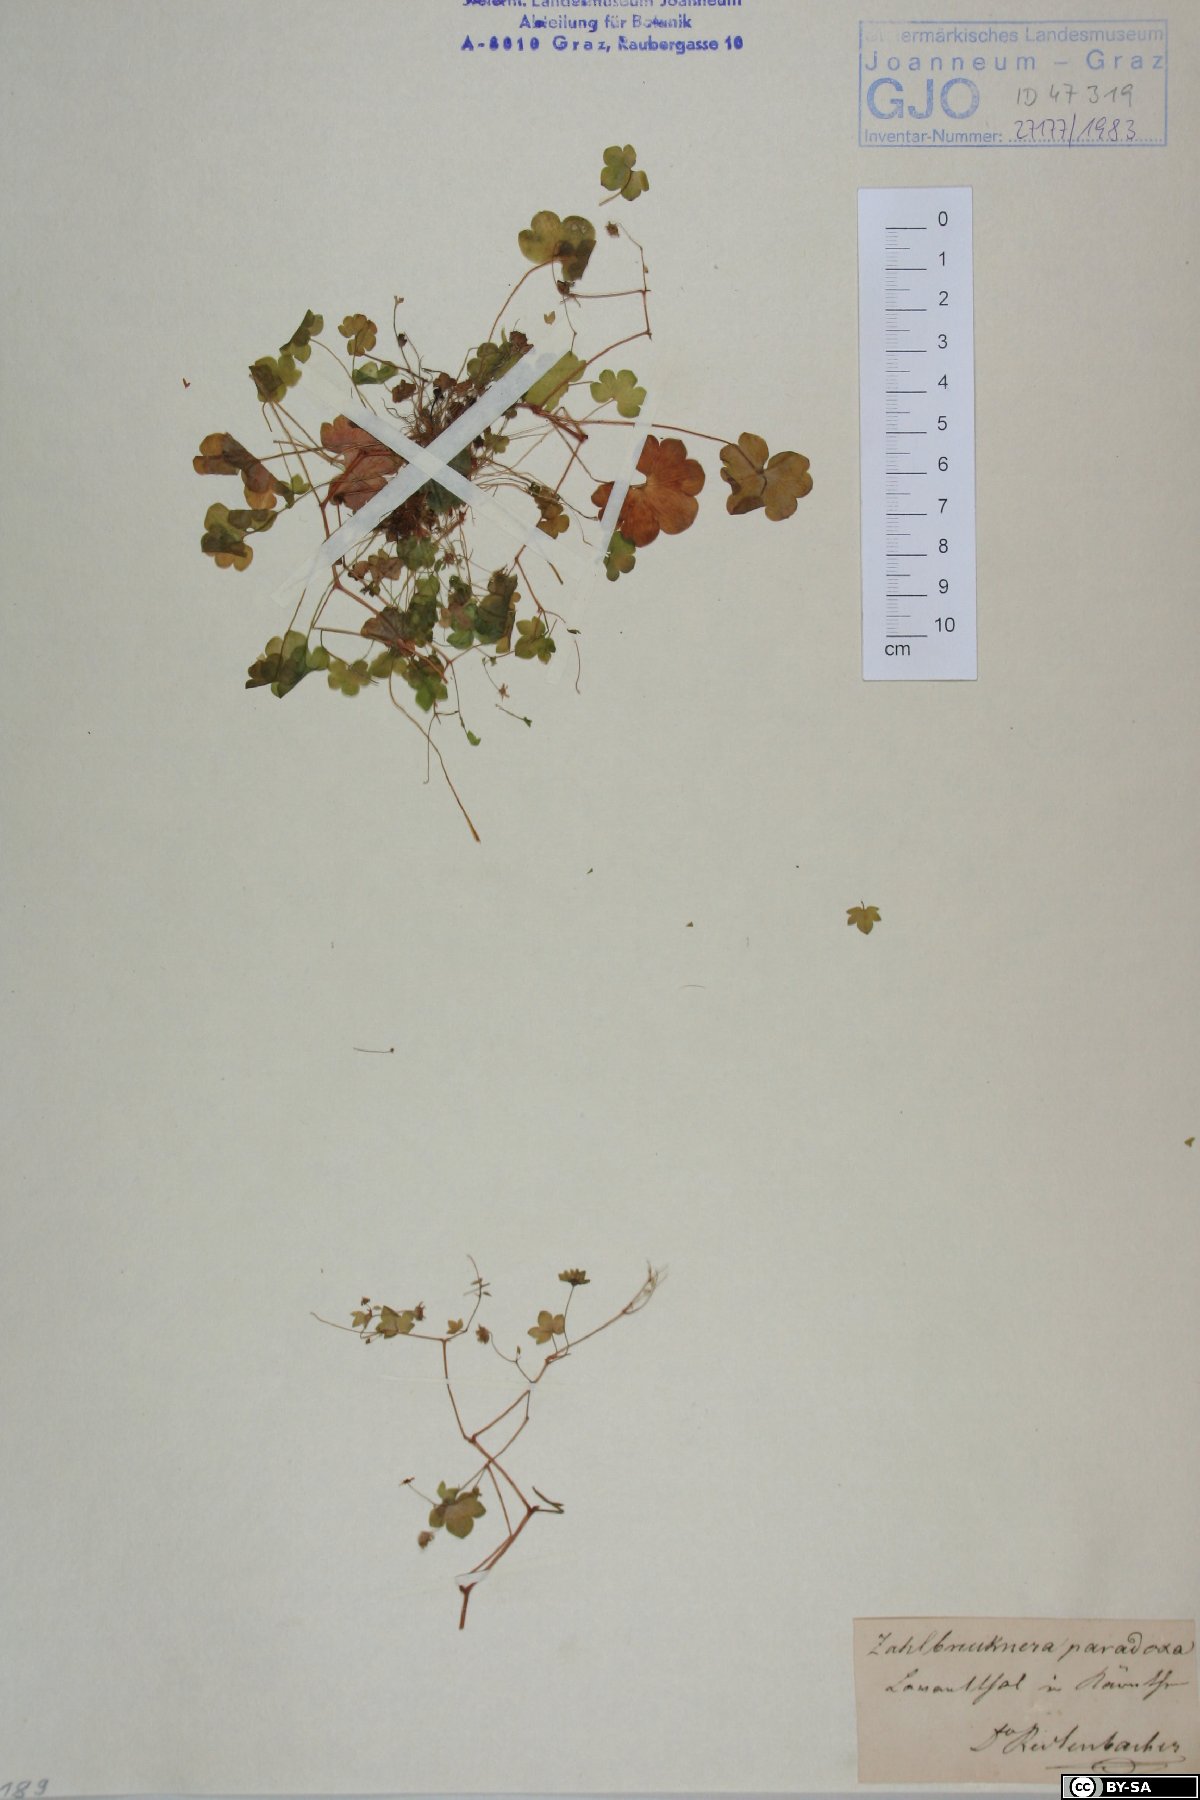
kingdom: Plantae
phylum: Tracheophyta
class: Magnoliopsida
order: Saxifragales
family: Saxifragaceae
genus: Saxifraga
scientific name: Saxifraga paradoxa
